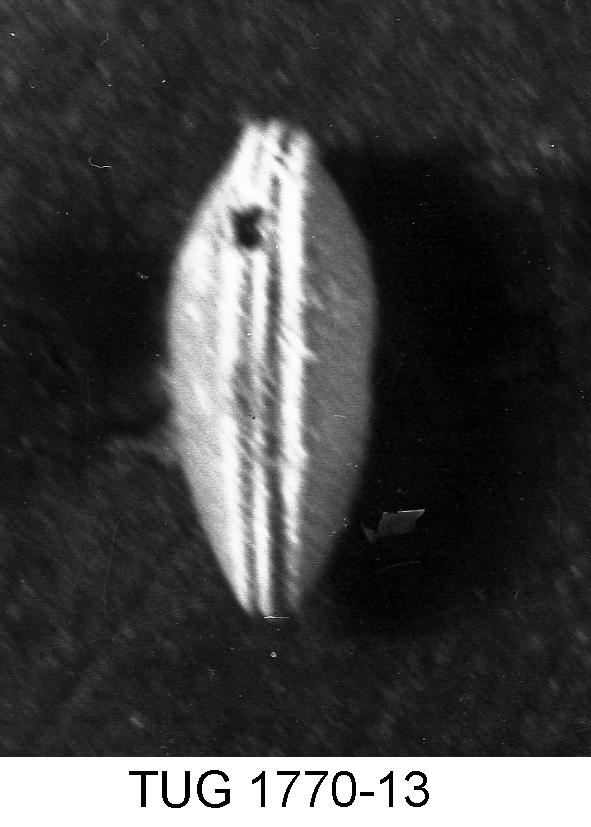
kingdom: Animalia
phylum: Arthropoda
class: Ostracoda
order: Platycopida
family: Kloedenellidae
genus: Kloedenella
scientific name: Kloedenella
